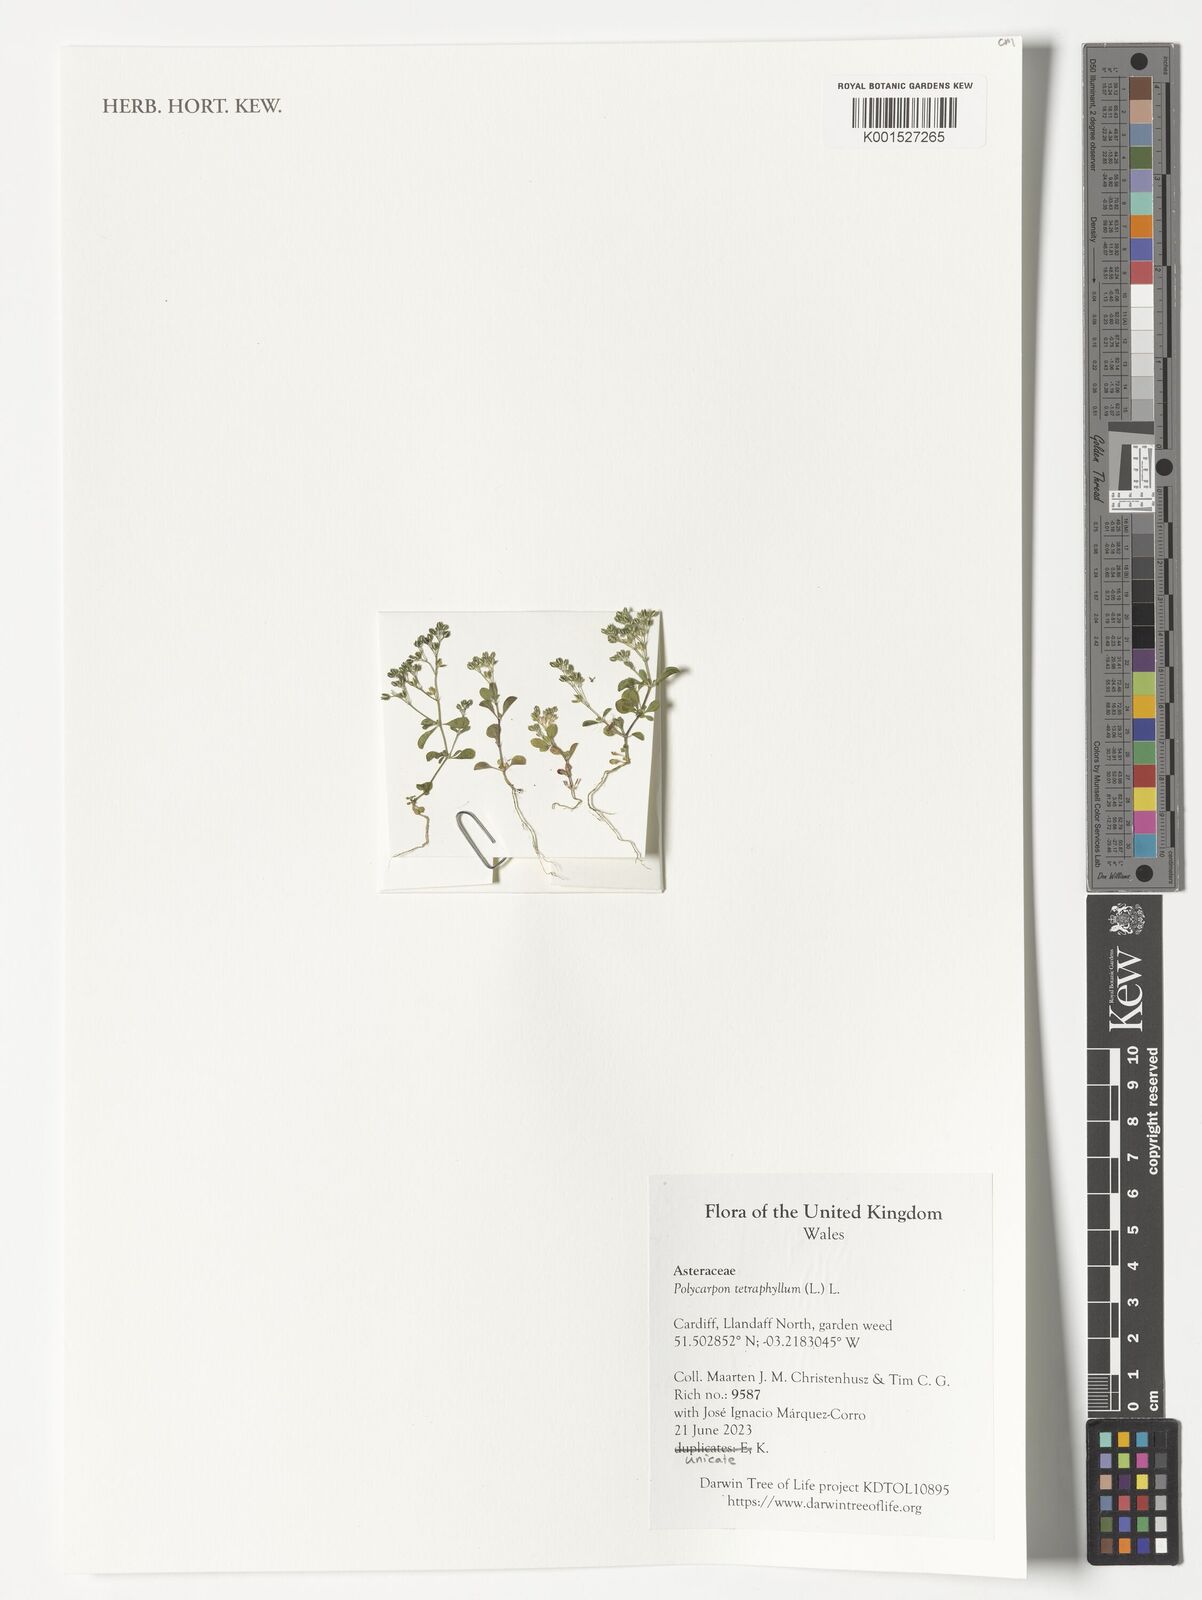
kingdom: Plantae
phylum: Tracheophyta
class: Magnoliopsida
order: Caryophyllales
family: Caryophyllaceae
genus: Polycarpon
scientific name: Polycarpon tetraphyllum
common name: Four-leaved all-seed
